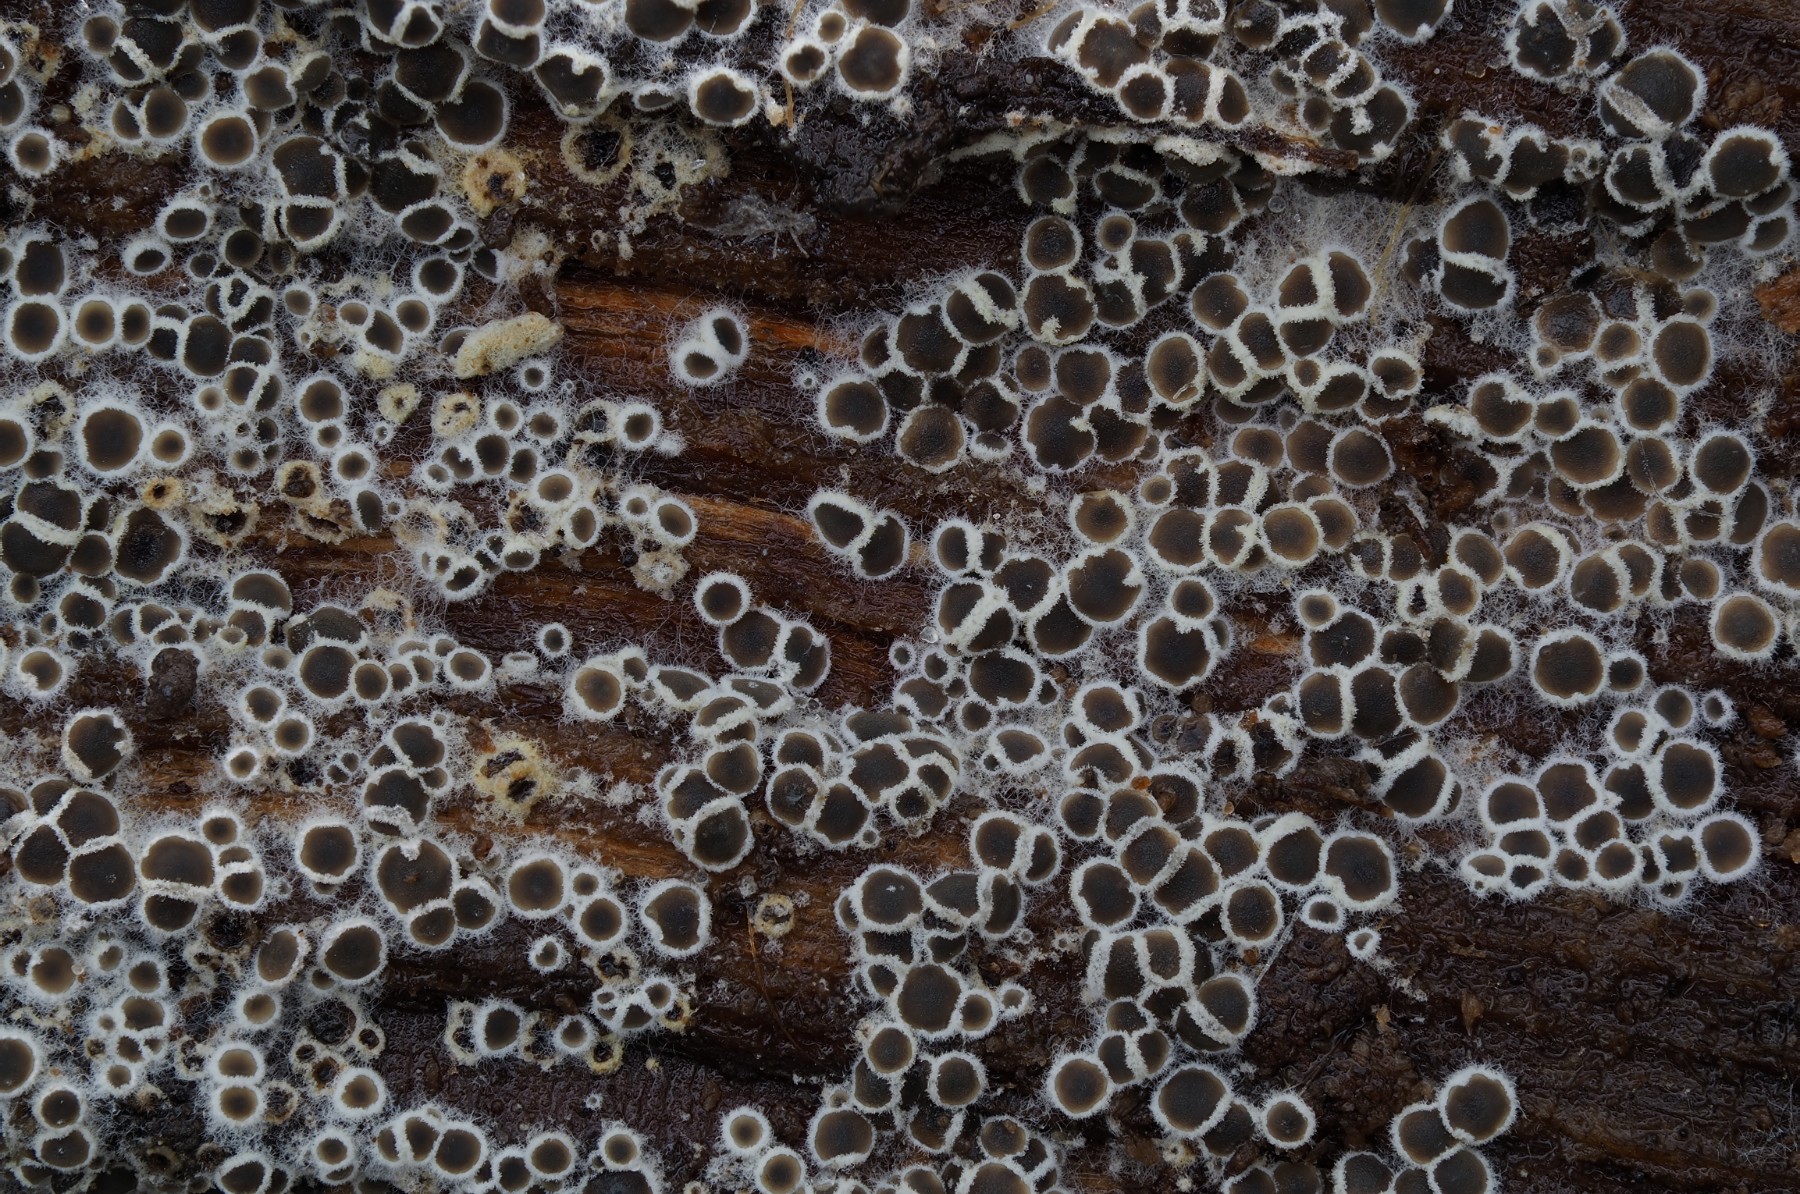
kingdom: Fungi
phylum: Ascomycota
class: Leotiomycetes
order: Helotiales
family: Arachnopezizaceae
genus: Eriopezia
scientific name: Eriopezia caesia
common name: ege-spindskive
